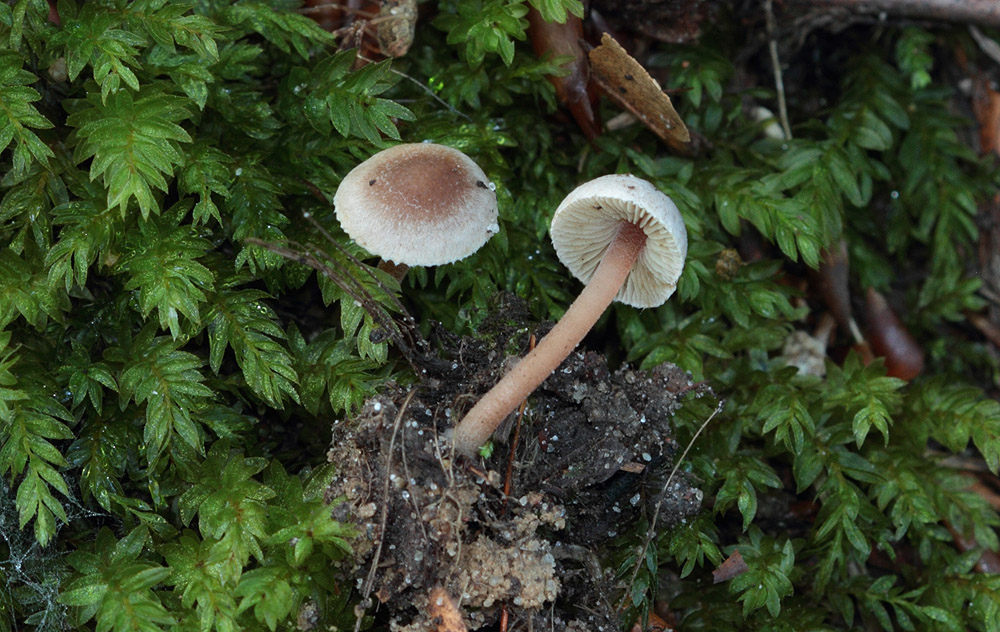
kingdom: Fungi
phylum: Basidiomycota
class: Agaricomycetes
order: Agaricales
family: Inocybaceae
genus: Inocybe
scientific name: Inocybe petiginosa
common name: liden trævlhat
